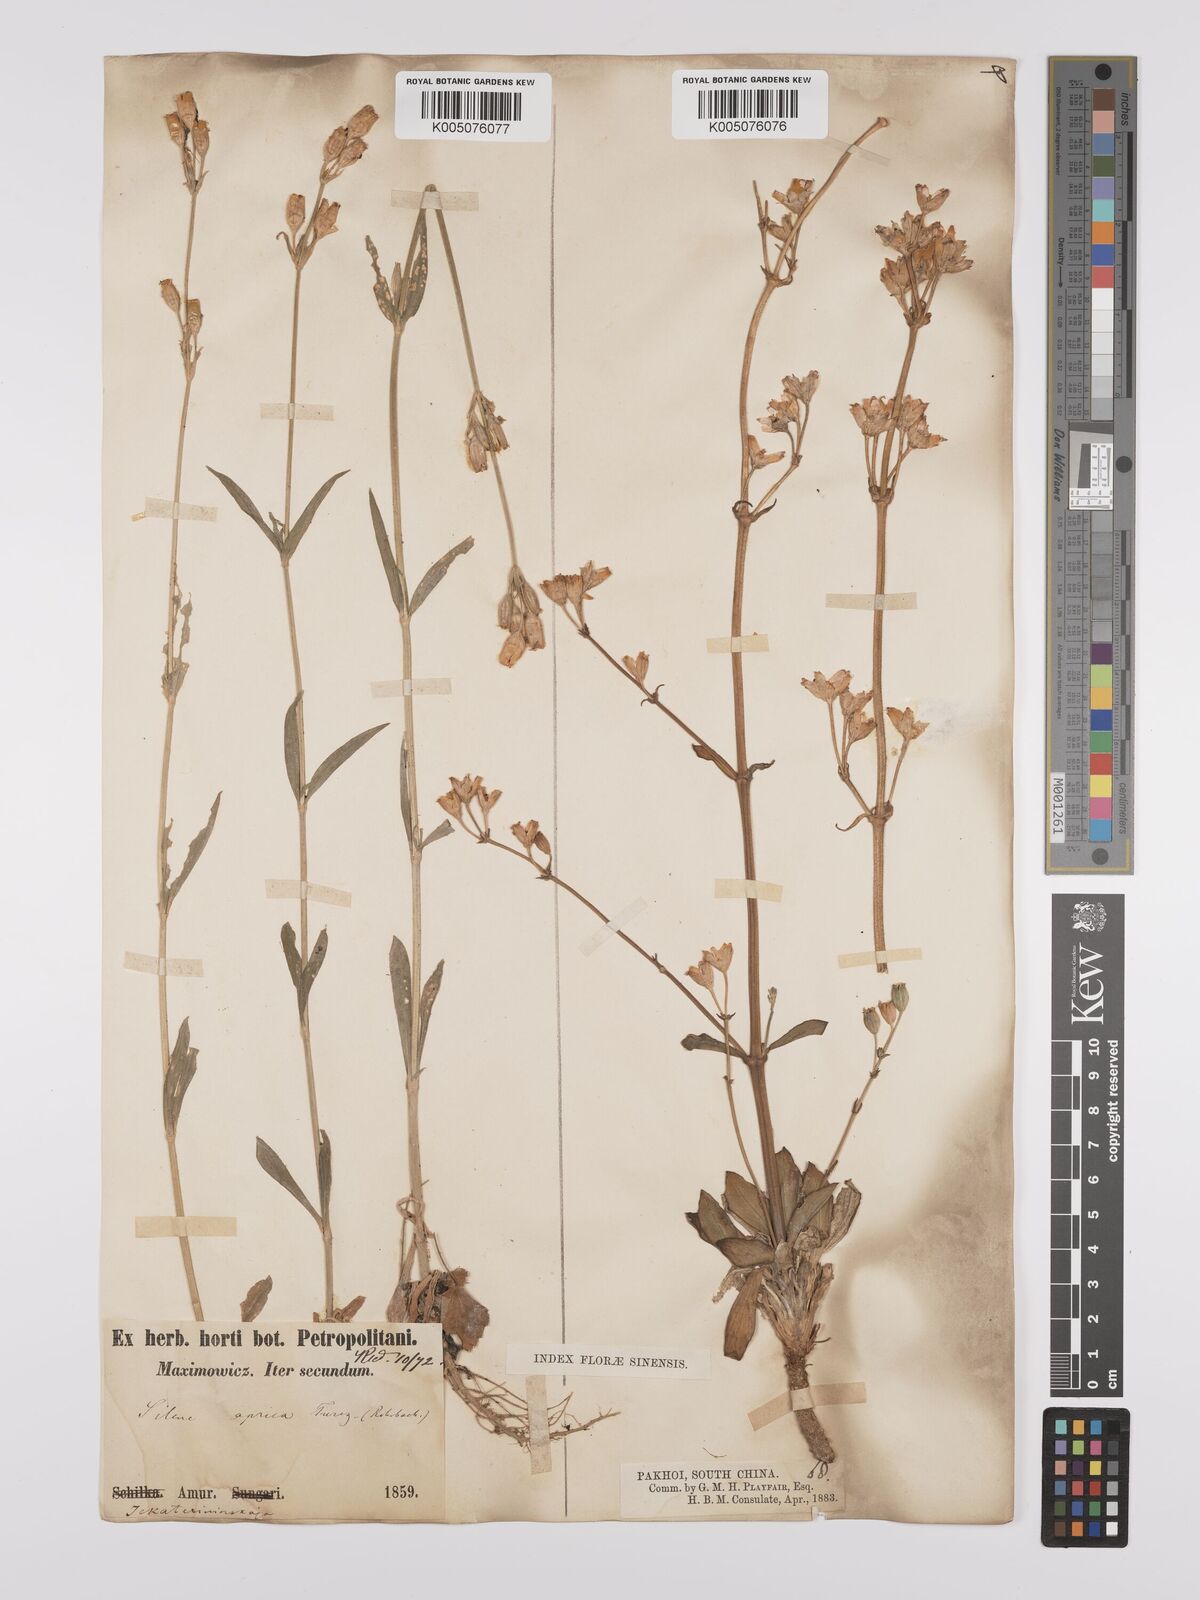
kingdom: Plantae
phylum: Tracheophyta
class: Magnoliopsida
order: Caryophyllales
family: Caryophyllaceae
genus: Silene
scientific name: Silene aprica
